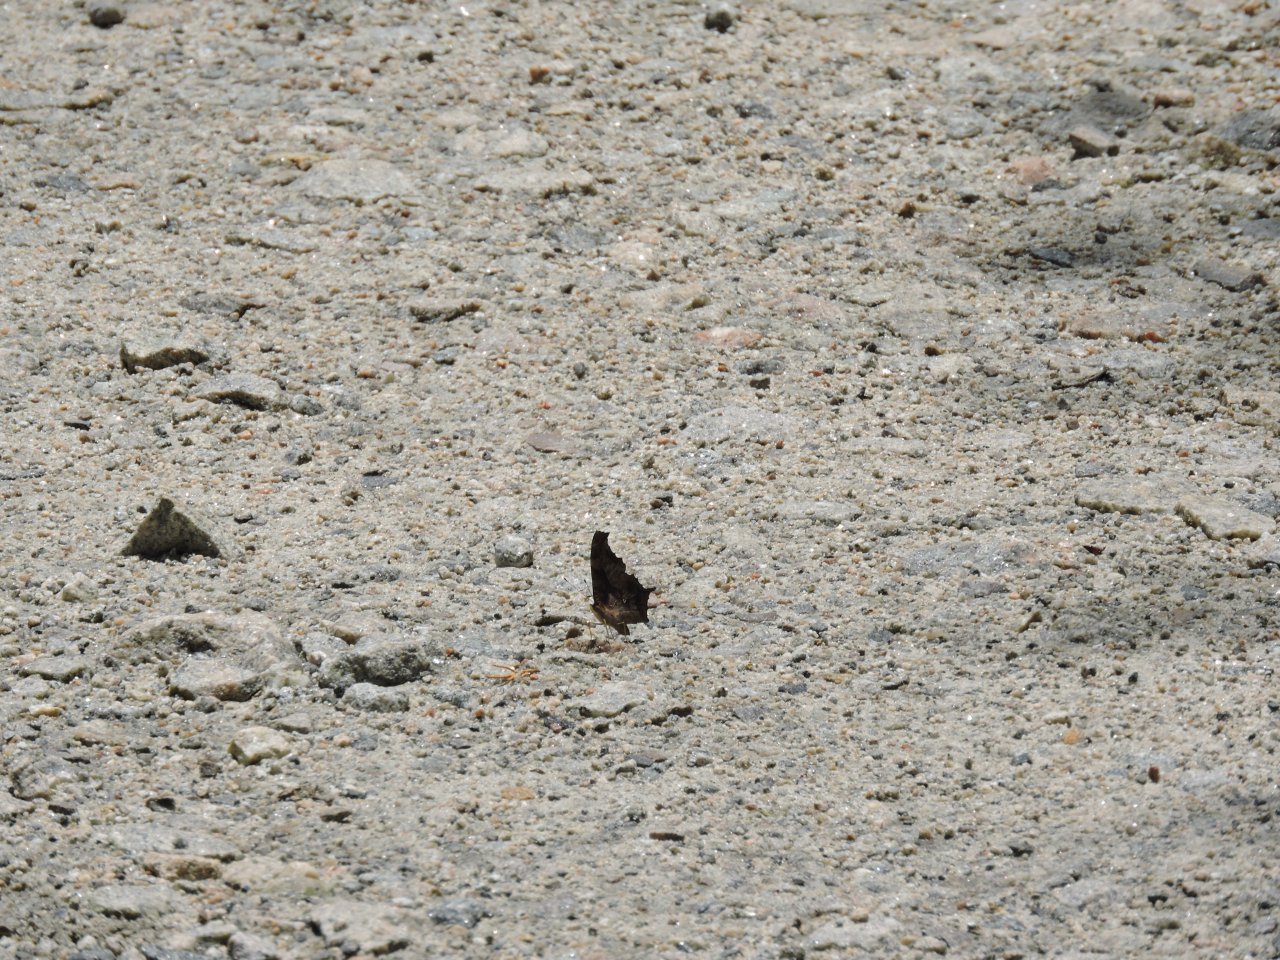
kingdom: Animalia
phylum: Arthropoda
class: Insecta
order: Lepidoptera
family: Nymphalidae
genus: Polygonia
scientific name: Polygonia comma
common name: Eastern Comma
